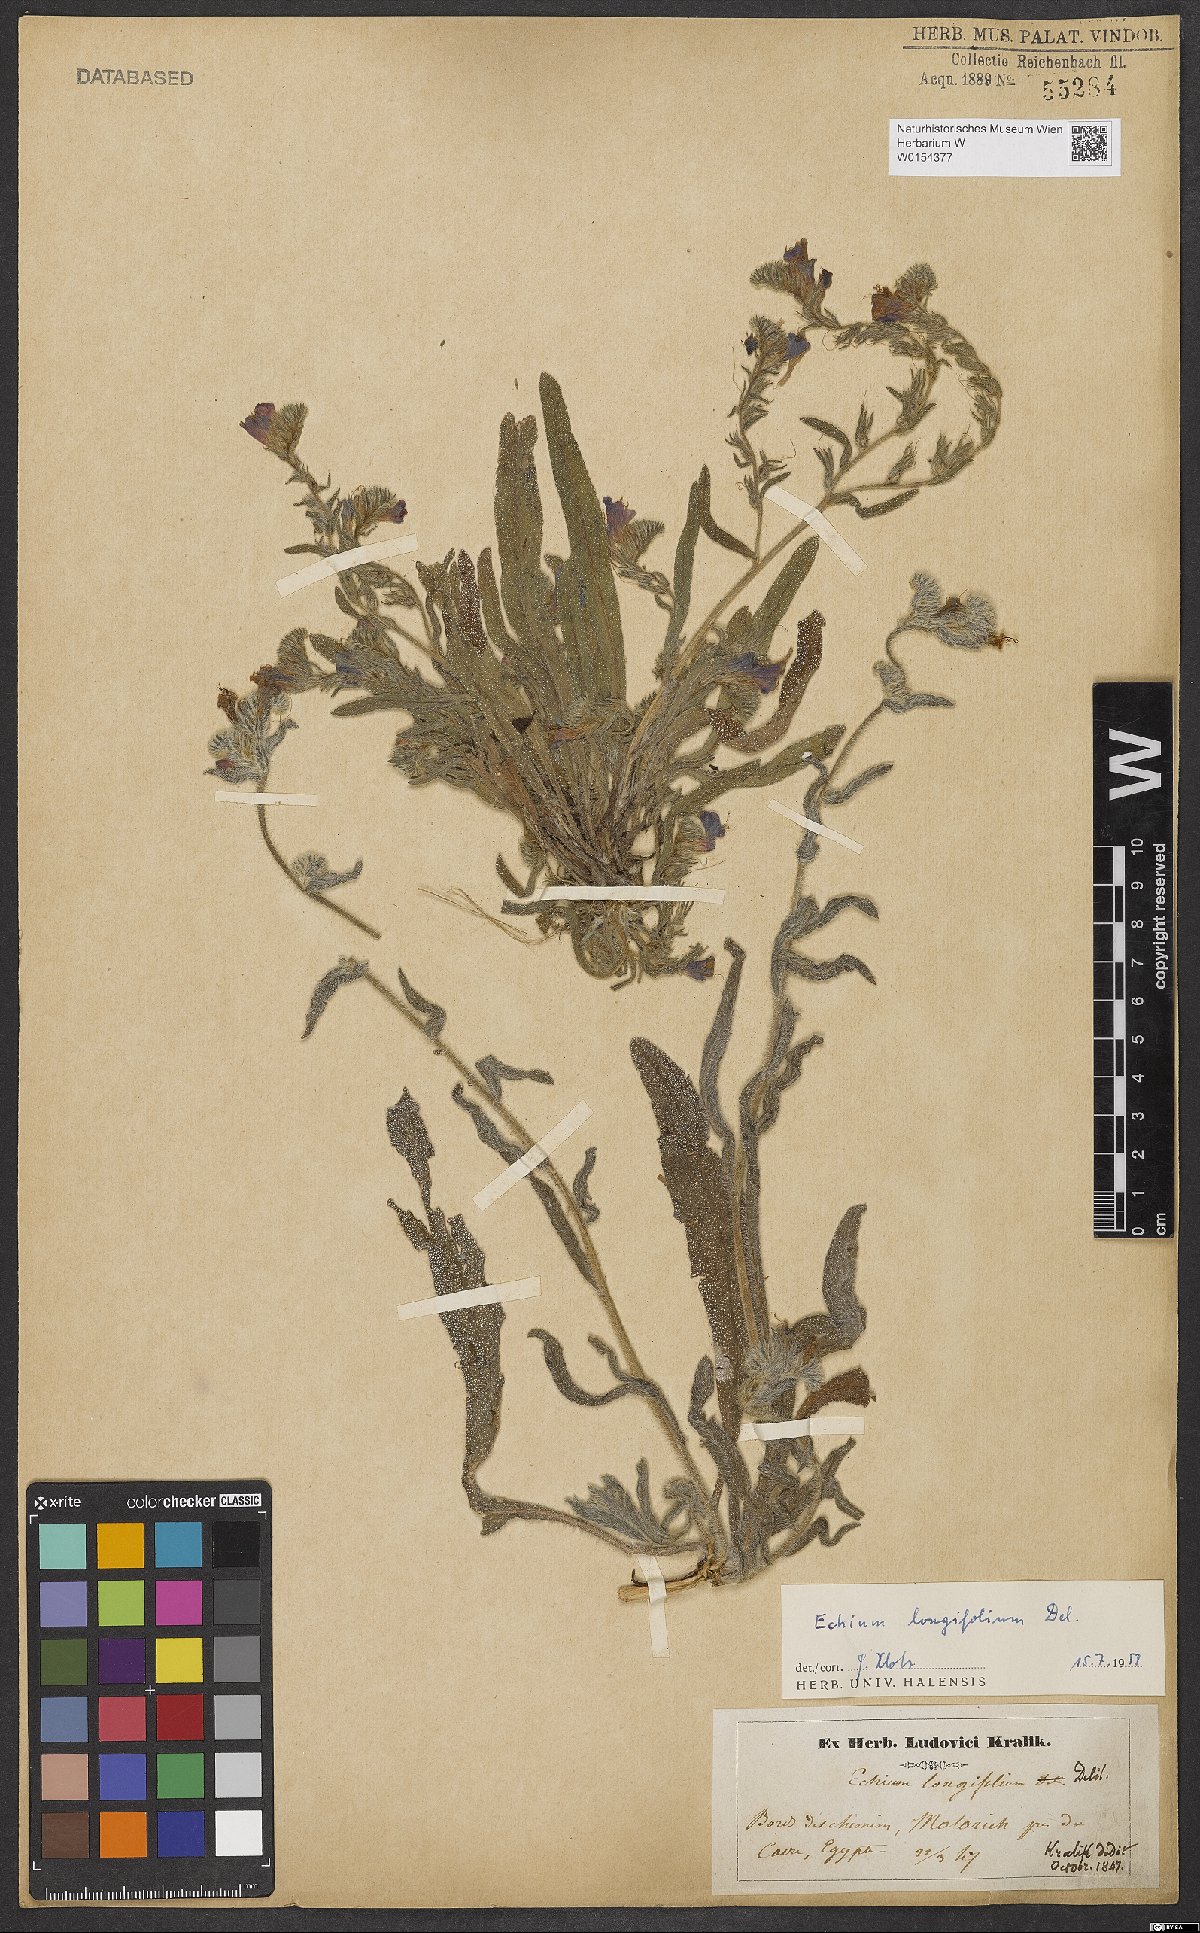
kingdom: Plantae
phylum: Tracheophyta
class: Magnoliopsida
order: Boraginales
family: Boraginaceae
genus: Echium
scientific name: Echium longifolium
